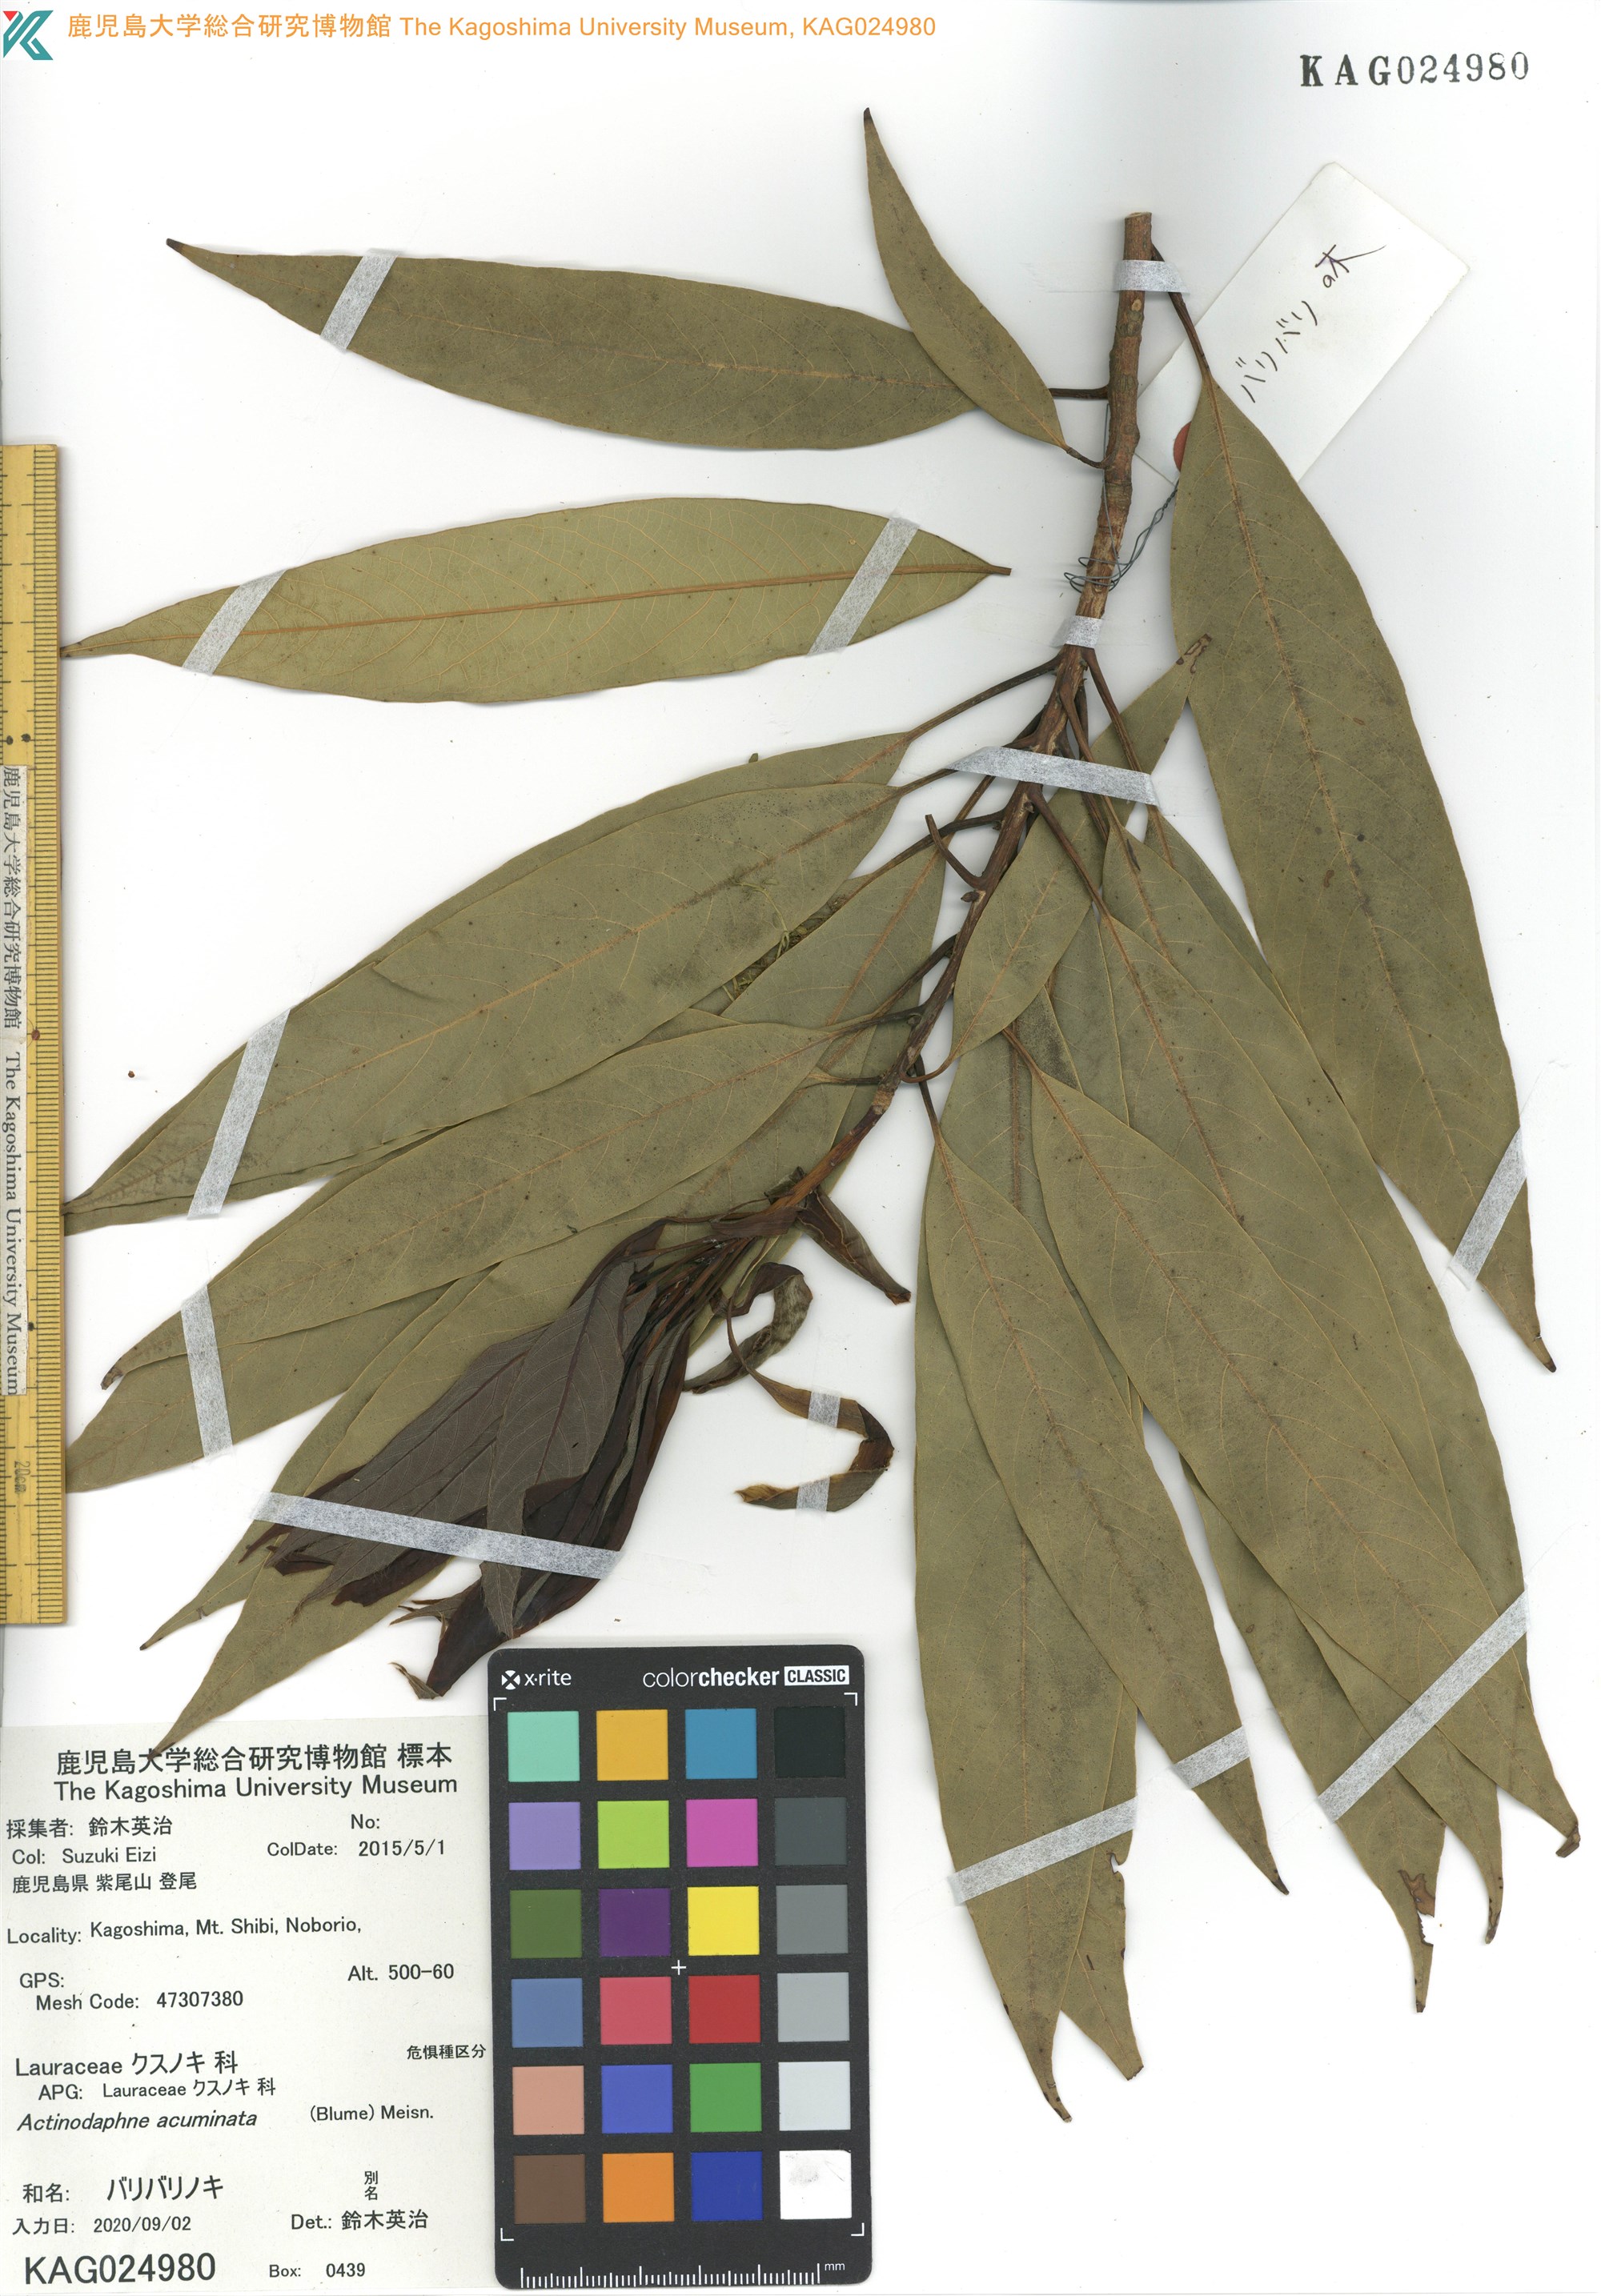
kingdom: Plantae
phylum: Tracheophyta
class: Magnoliopsida
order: Laurales
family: Lauraceae
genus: Actinodaphne
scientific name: Actinodaphne acuminata
